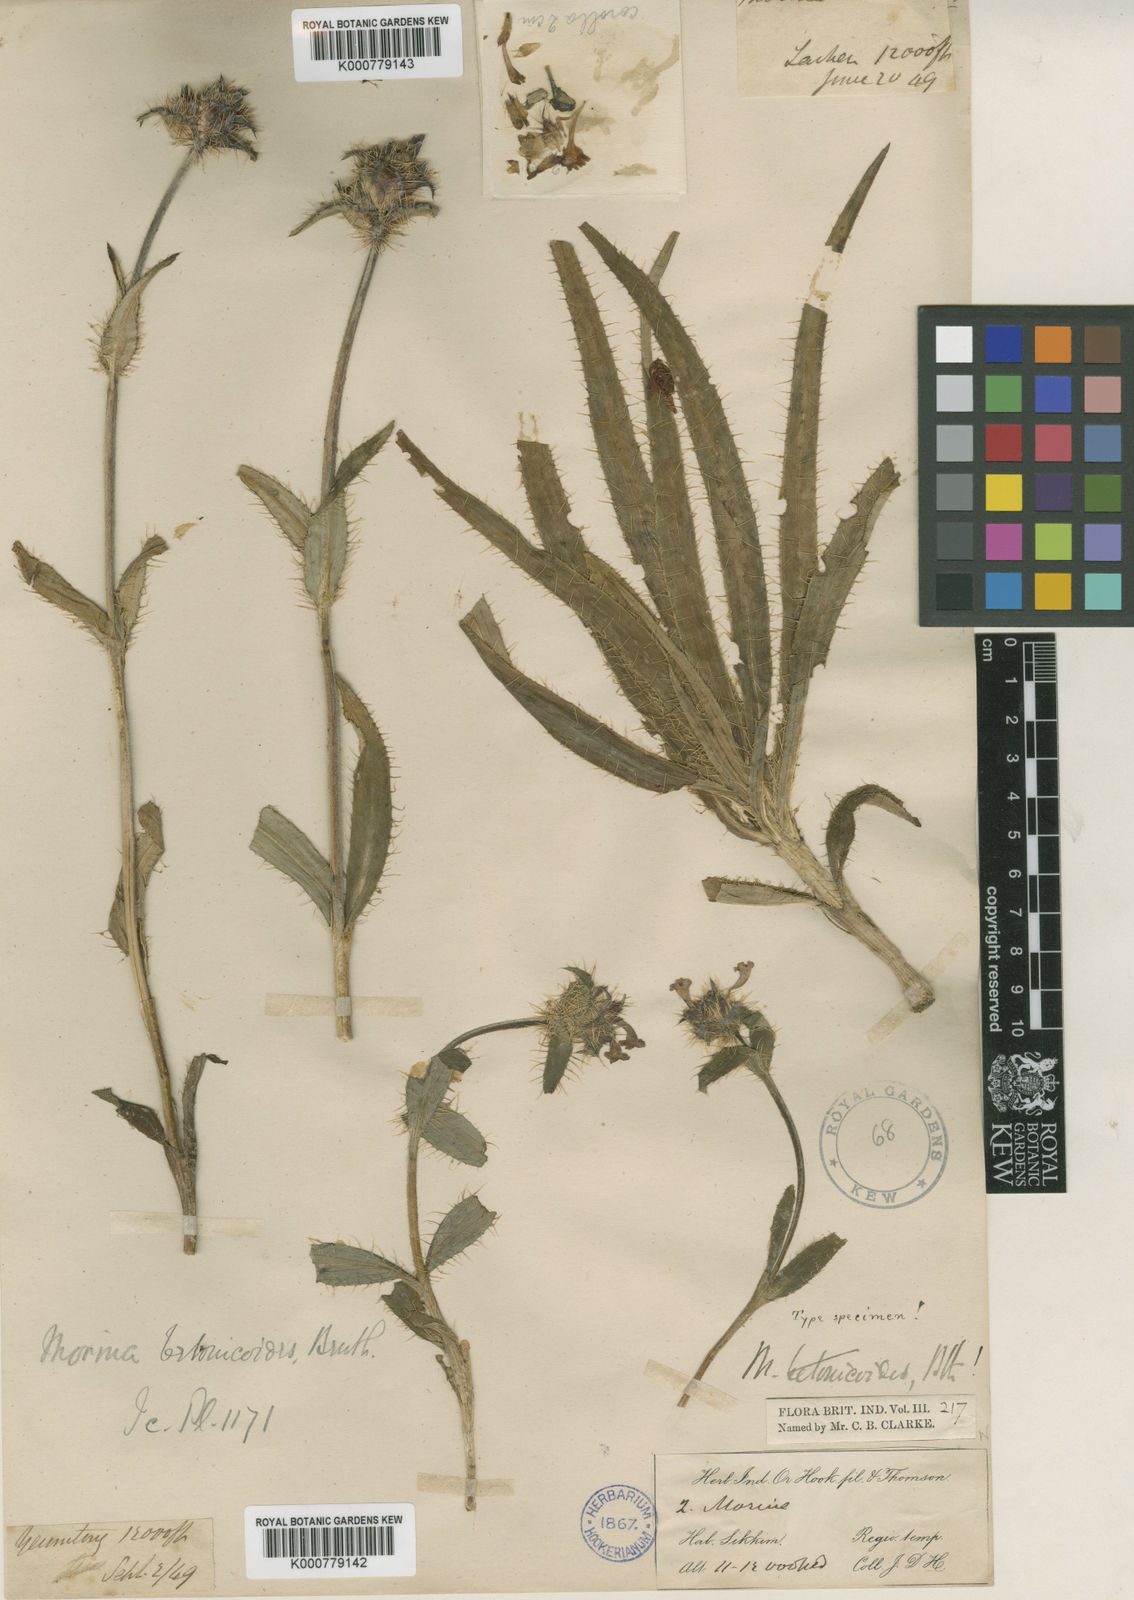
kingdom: Plantae
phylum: Tracheophyta
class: Magnoliopsida
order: Dipsacales
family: Caprifoliaceae
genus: Acanthocalyx
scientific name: Acanthocalyx nepalensis
